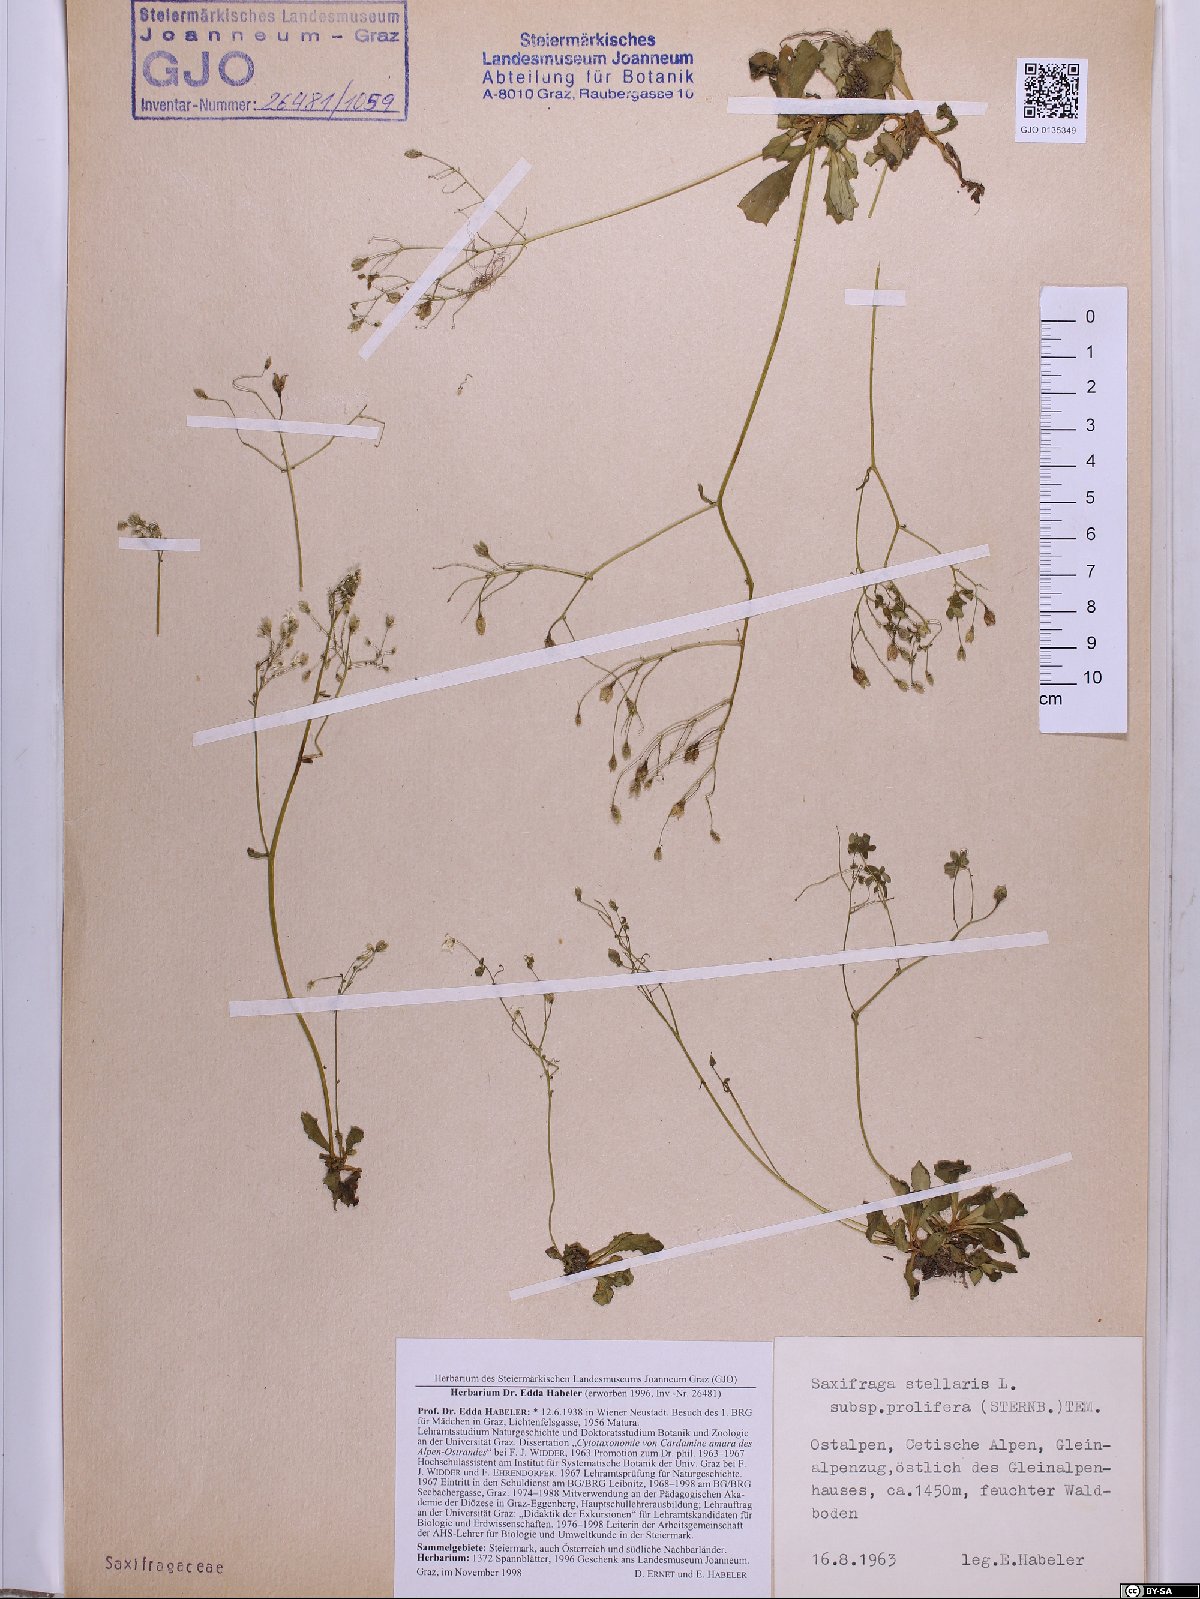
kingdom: Plantae
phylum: Tracheophyta
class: Magnoliopsida
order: Saxifragales
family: Saxifragaceae
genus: Micranthes
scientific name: Micranthes stellaris
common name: Starry saxifrage
